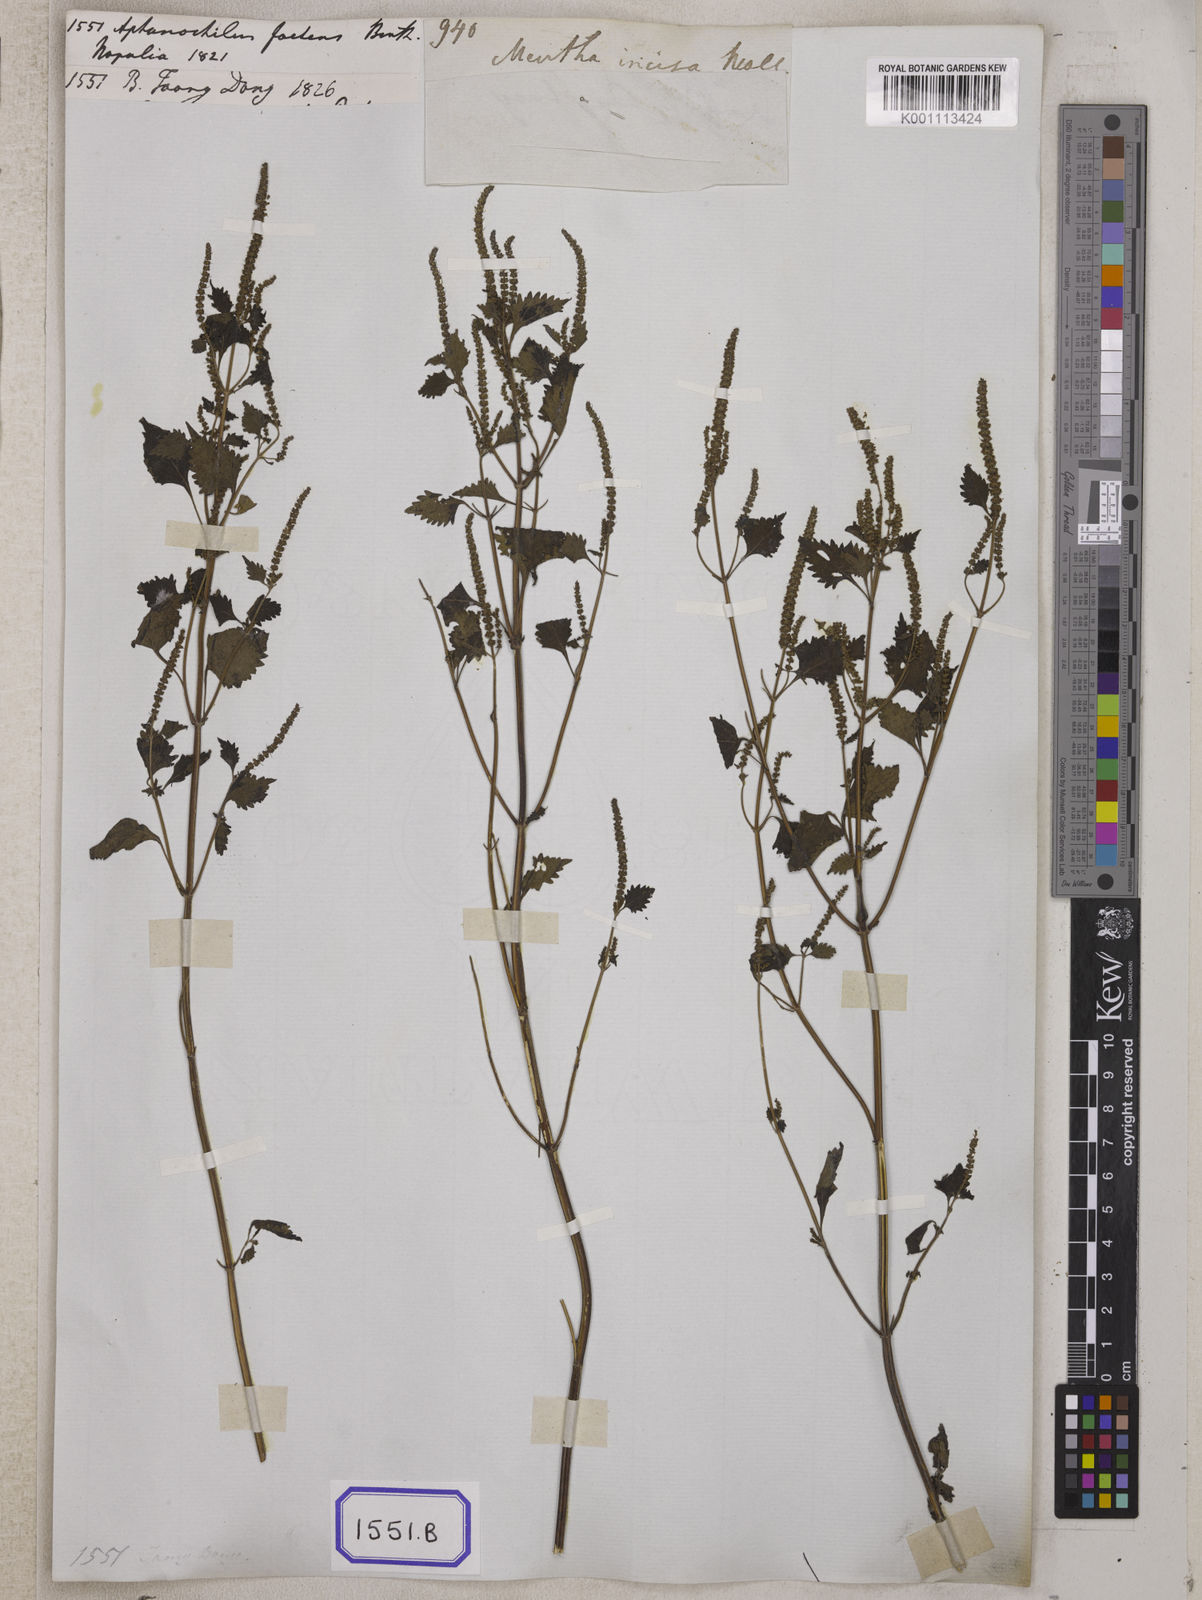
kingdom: Plantae
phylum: Tracheophyta
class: Magnoliopsida
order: Lamiales
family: Lamiaceae
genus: Elsholtzia
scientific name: Elsholtzia stachyodes
